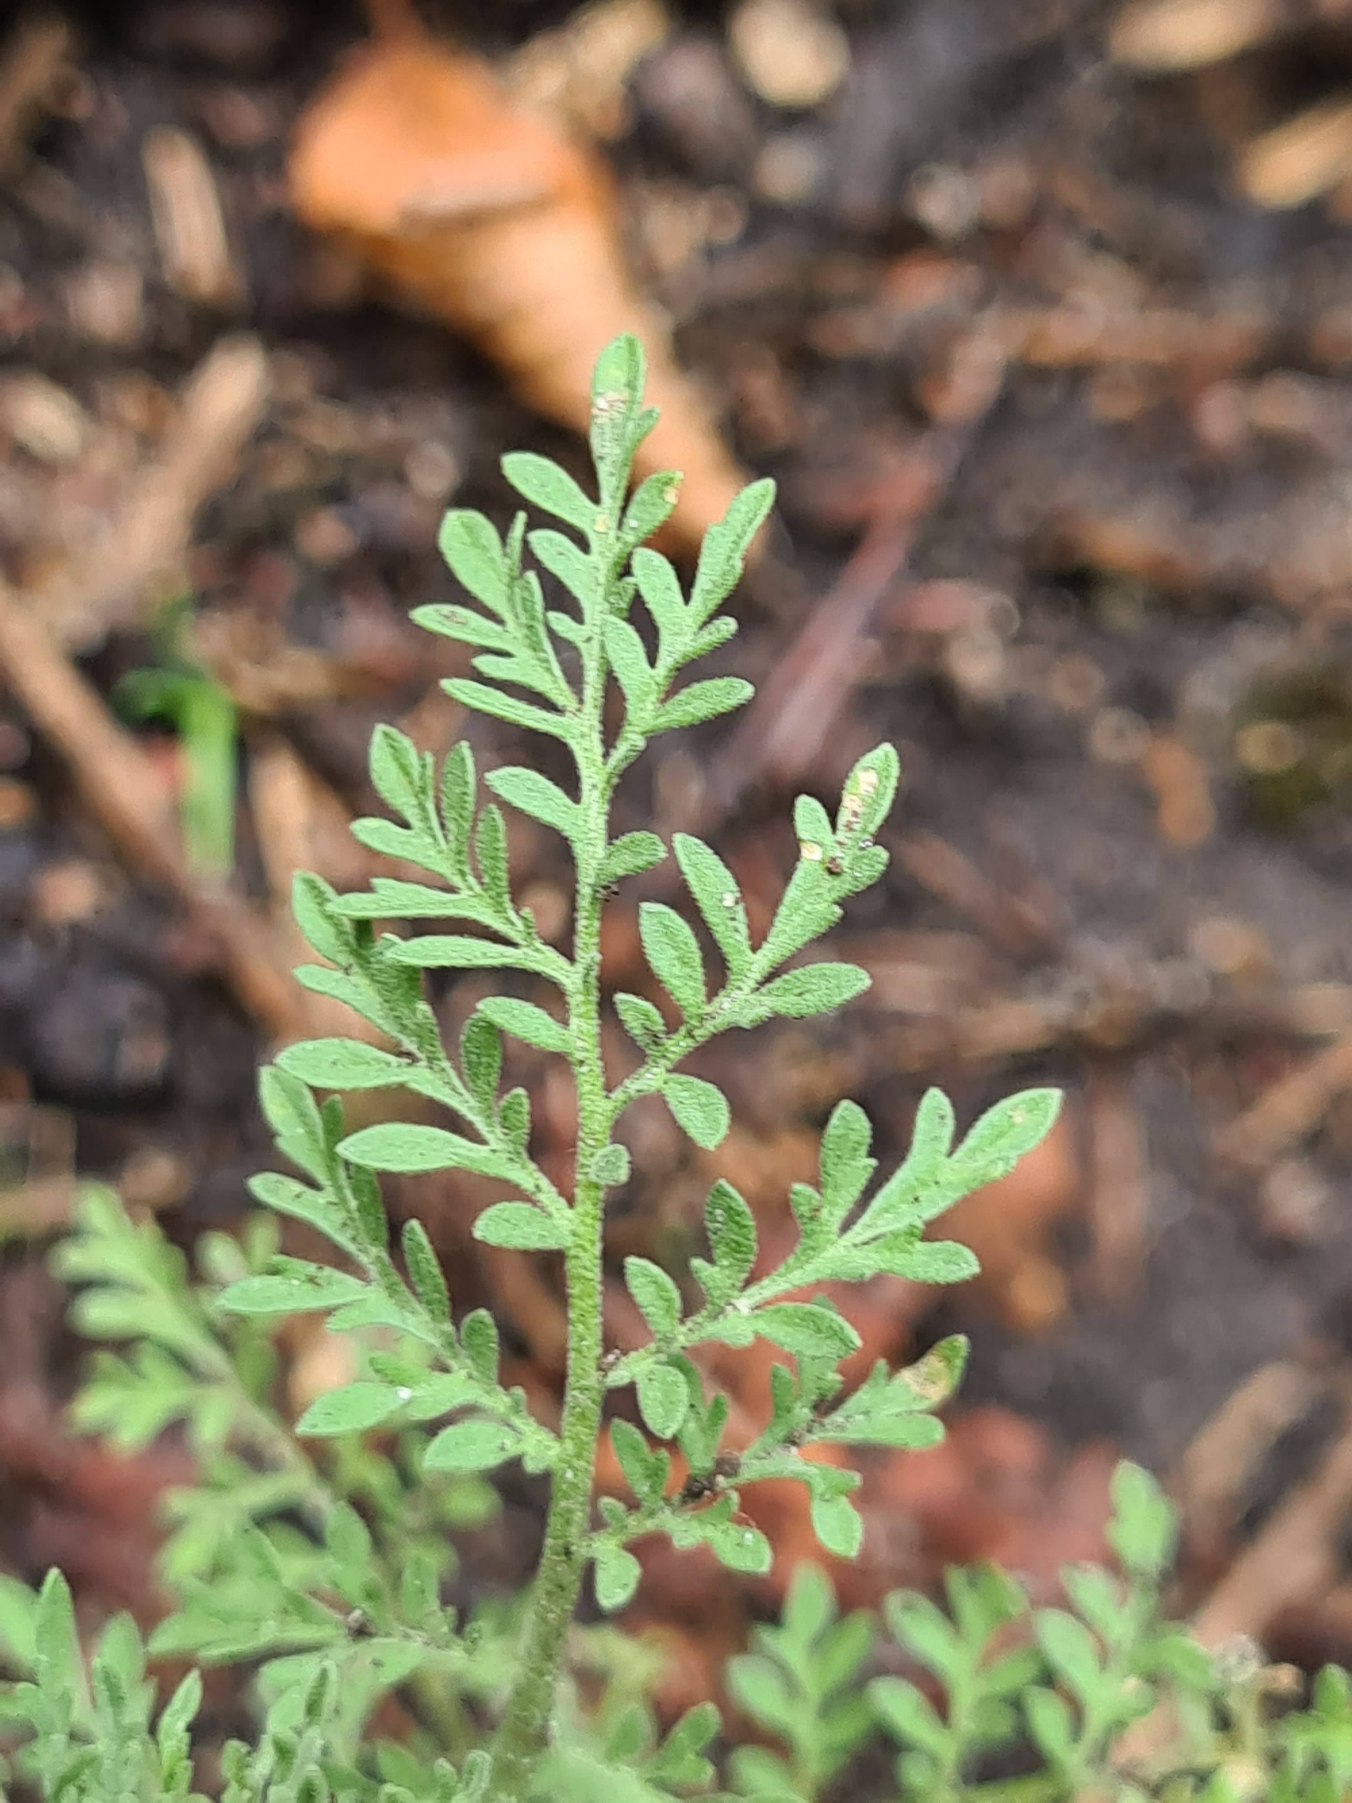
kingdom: Plantae
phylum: Tracheophyta
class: Magnoliopsida
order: Brassicales
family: Brassicaceae
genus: Descurainia
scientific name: Descurainia sophia
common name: Finbladet vejsennep
